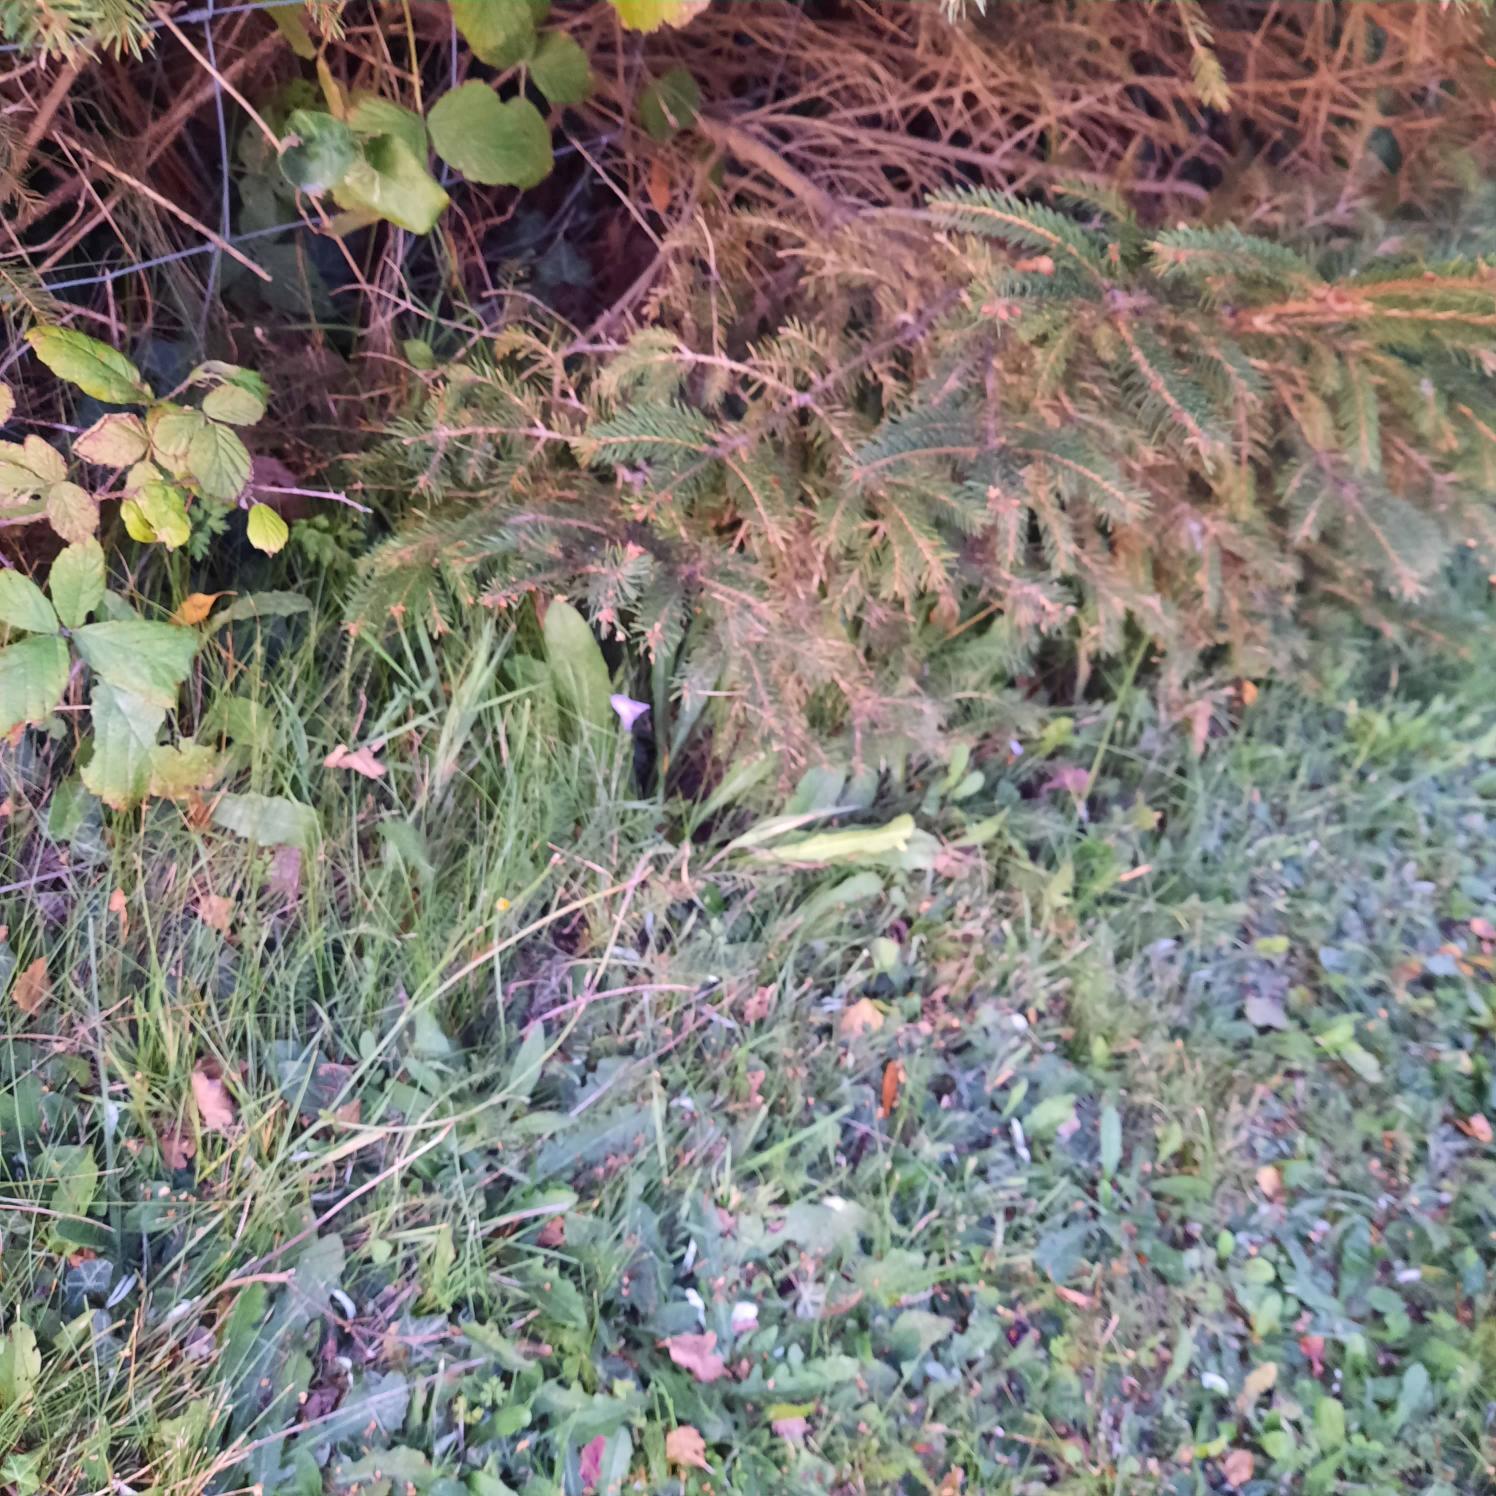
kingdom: Plantae
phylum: Tracheophyta
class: Magnoliopsida
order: Asterales
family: Campanulaceae
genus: Campanula
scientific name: Campanula rotundifolia
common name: Liden klokke
